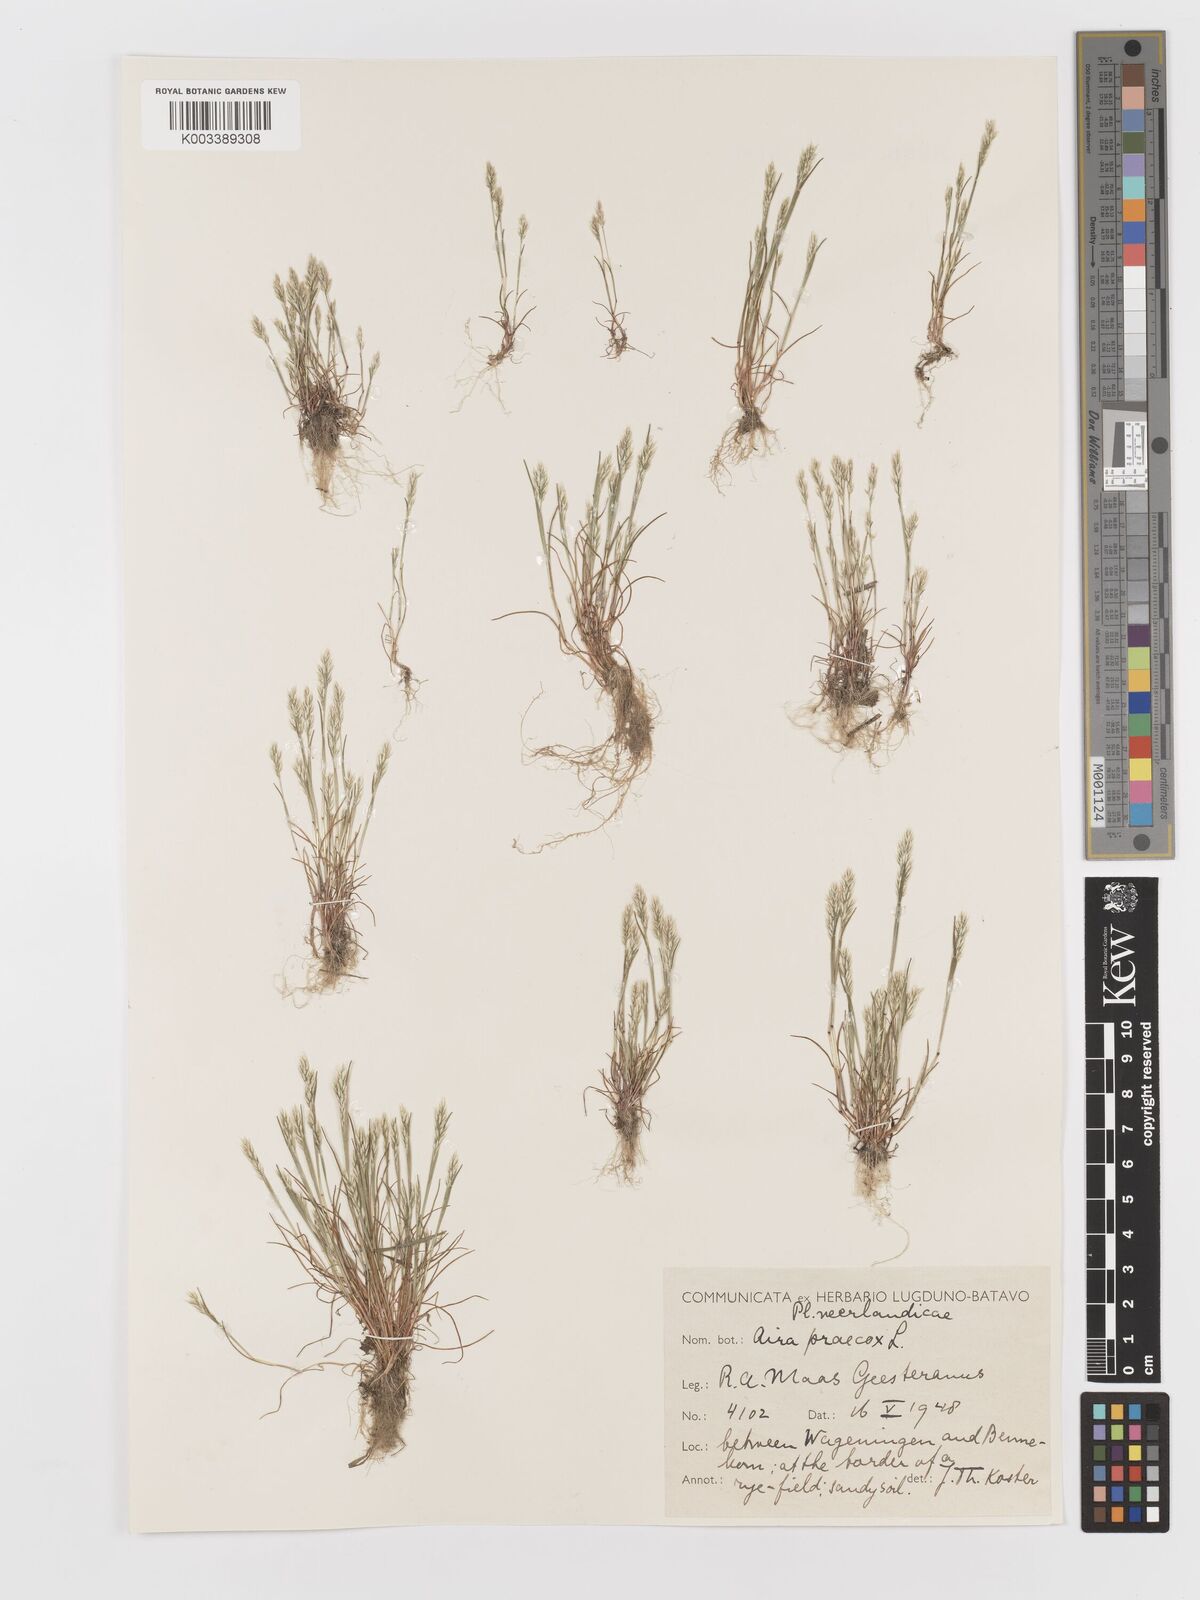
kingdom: Plantae
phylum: Tracheophyta
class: Liliopsida
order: Poales
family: Poaceae
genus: Aira
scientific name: Aira praecox
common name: Early hair-grass
